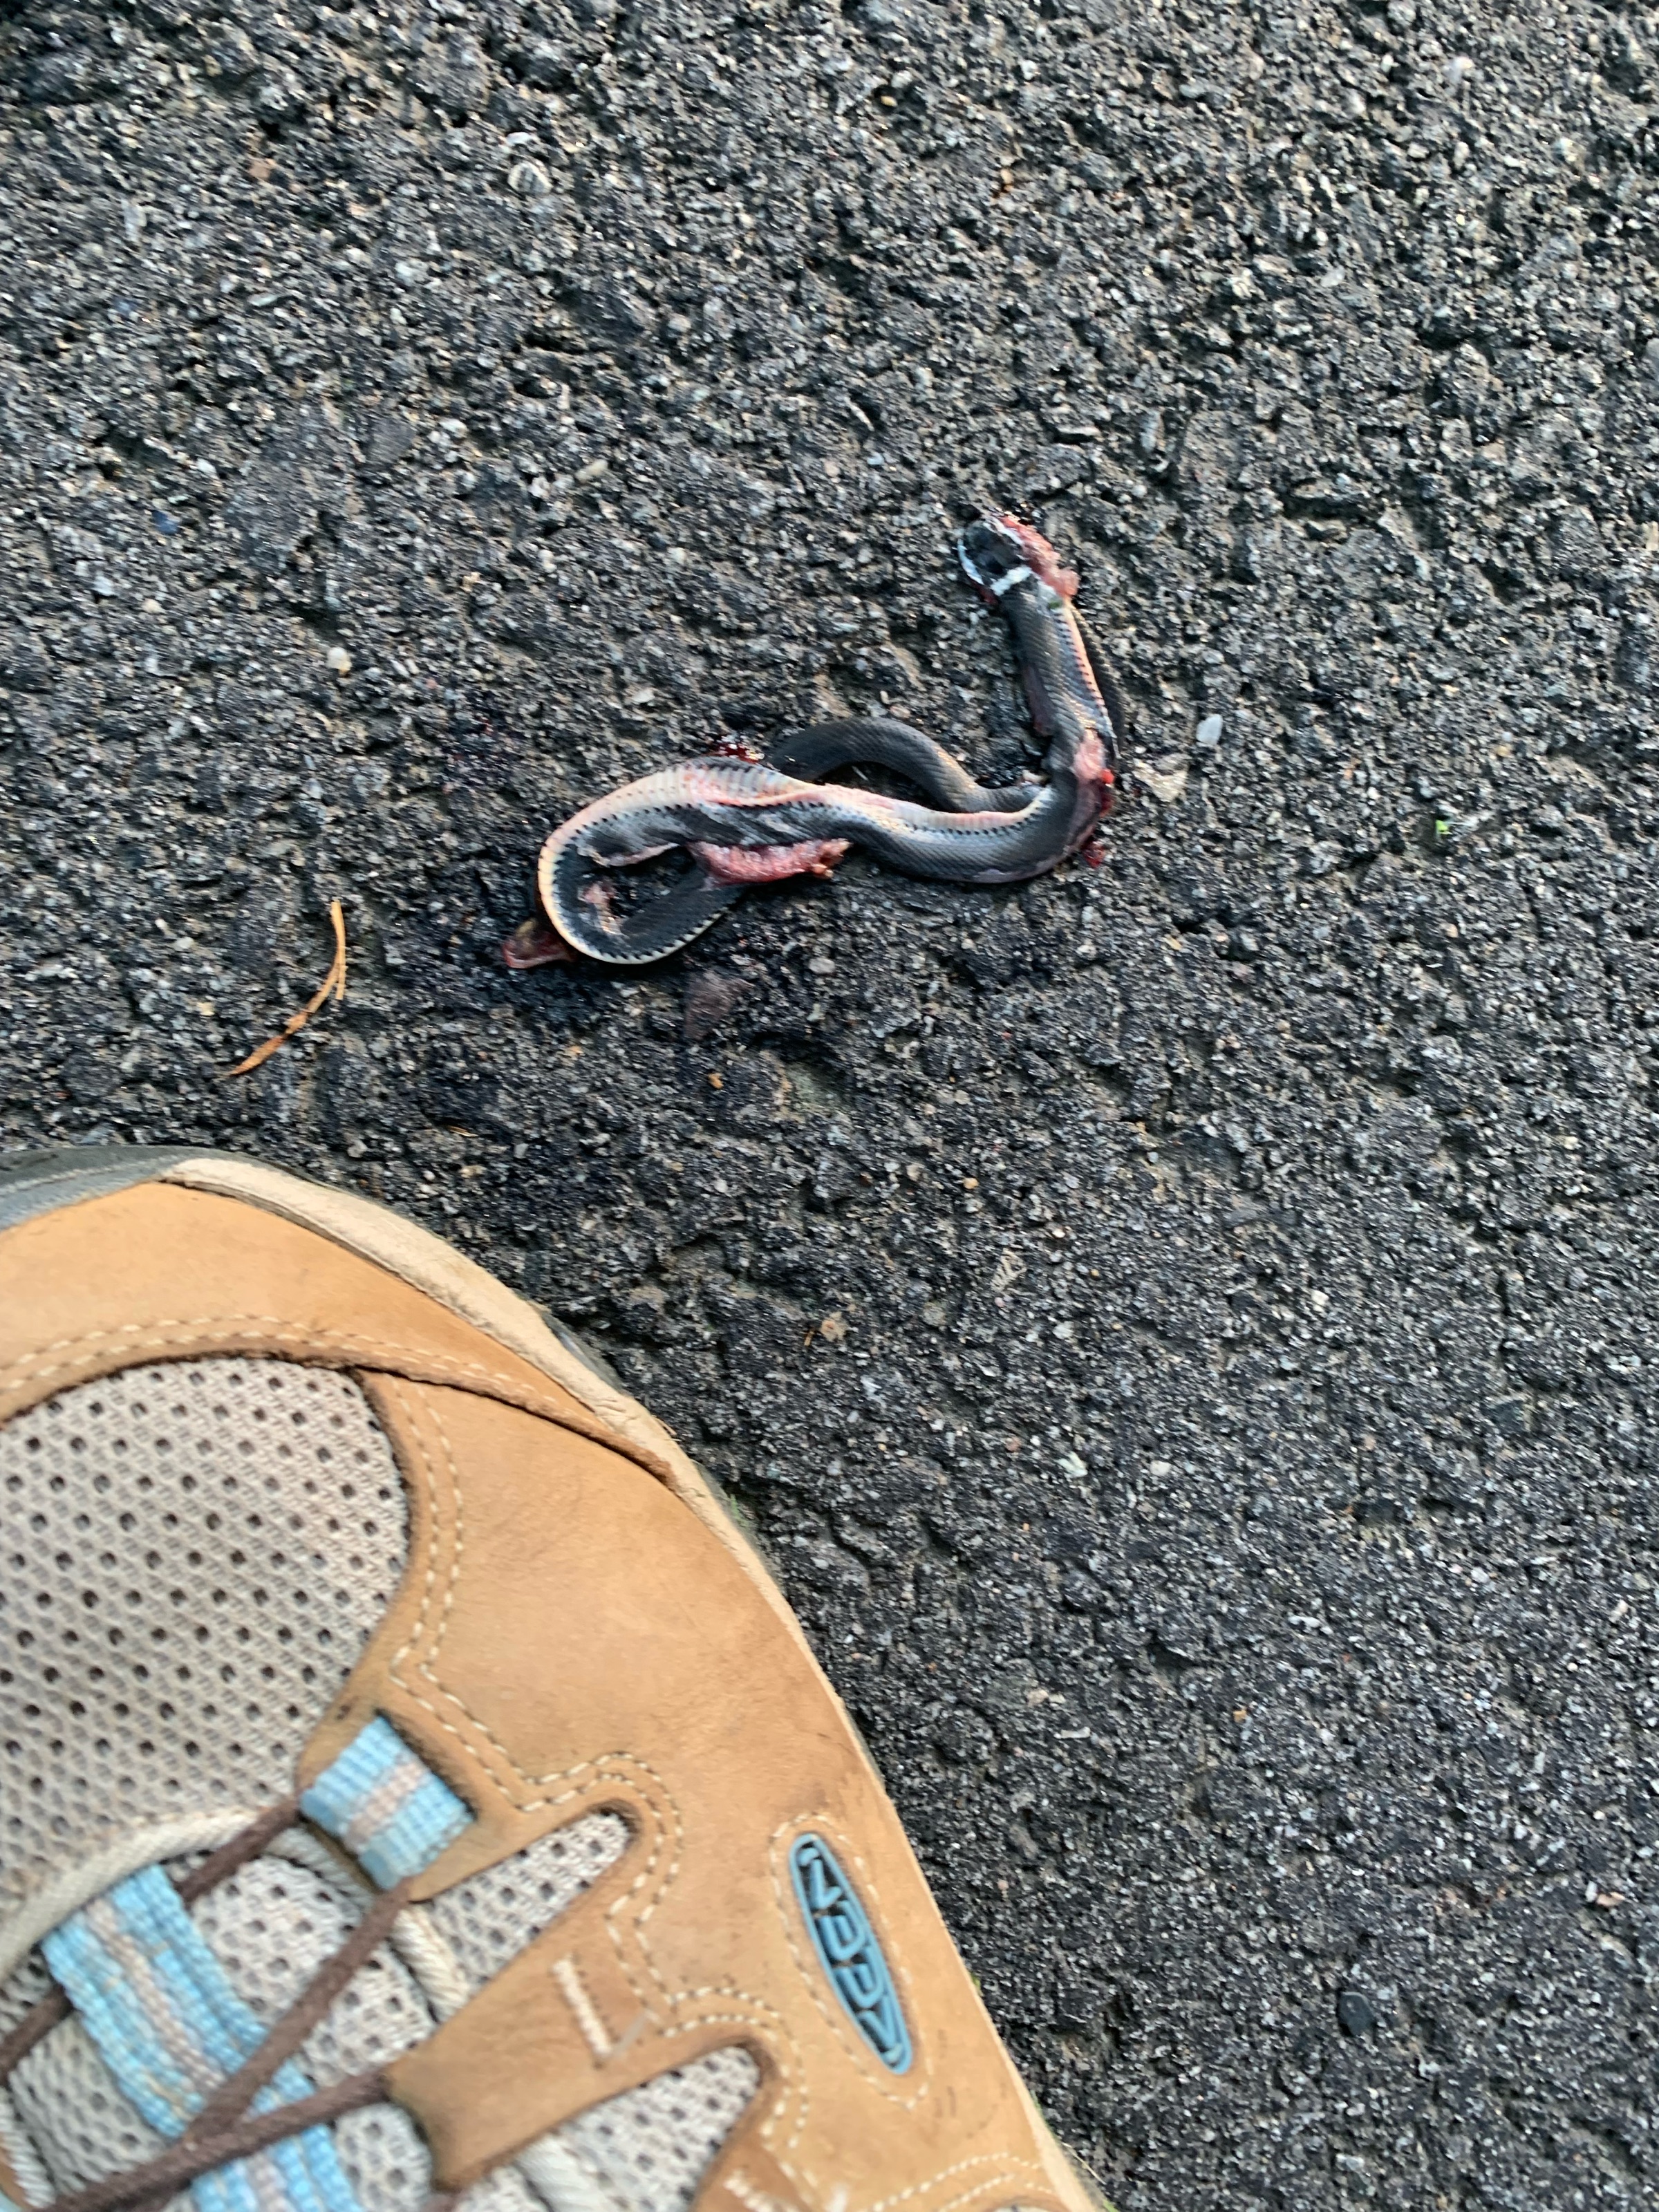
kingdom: Animalia
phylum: Chordata
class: Squamata
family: Colubridae
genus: Diadophis
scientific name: Diadophis
